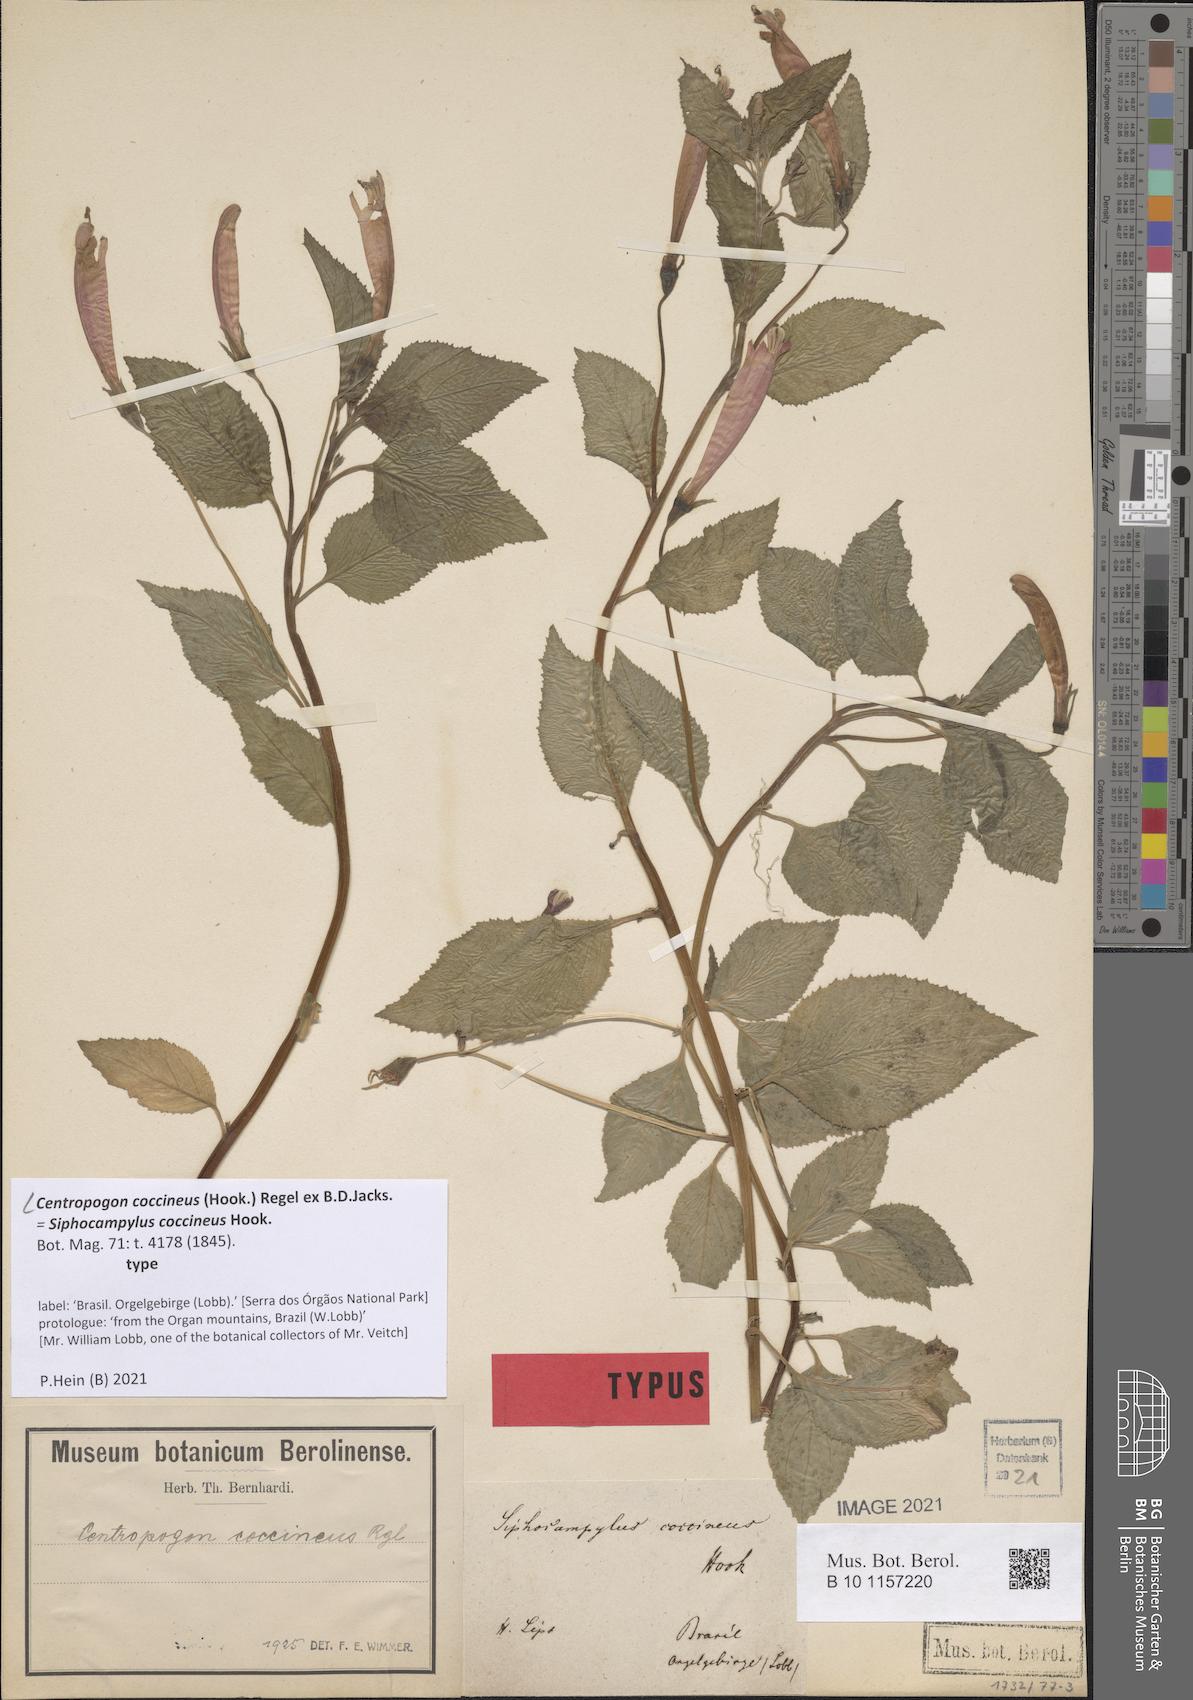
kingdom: Plantae
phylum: Tracheophyta
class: Magnoliopsida
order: Asterales
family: Campanulaceae
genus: Centropogon
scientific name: Centropogon coccineus
